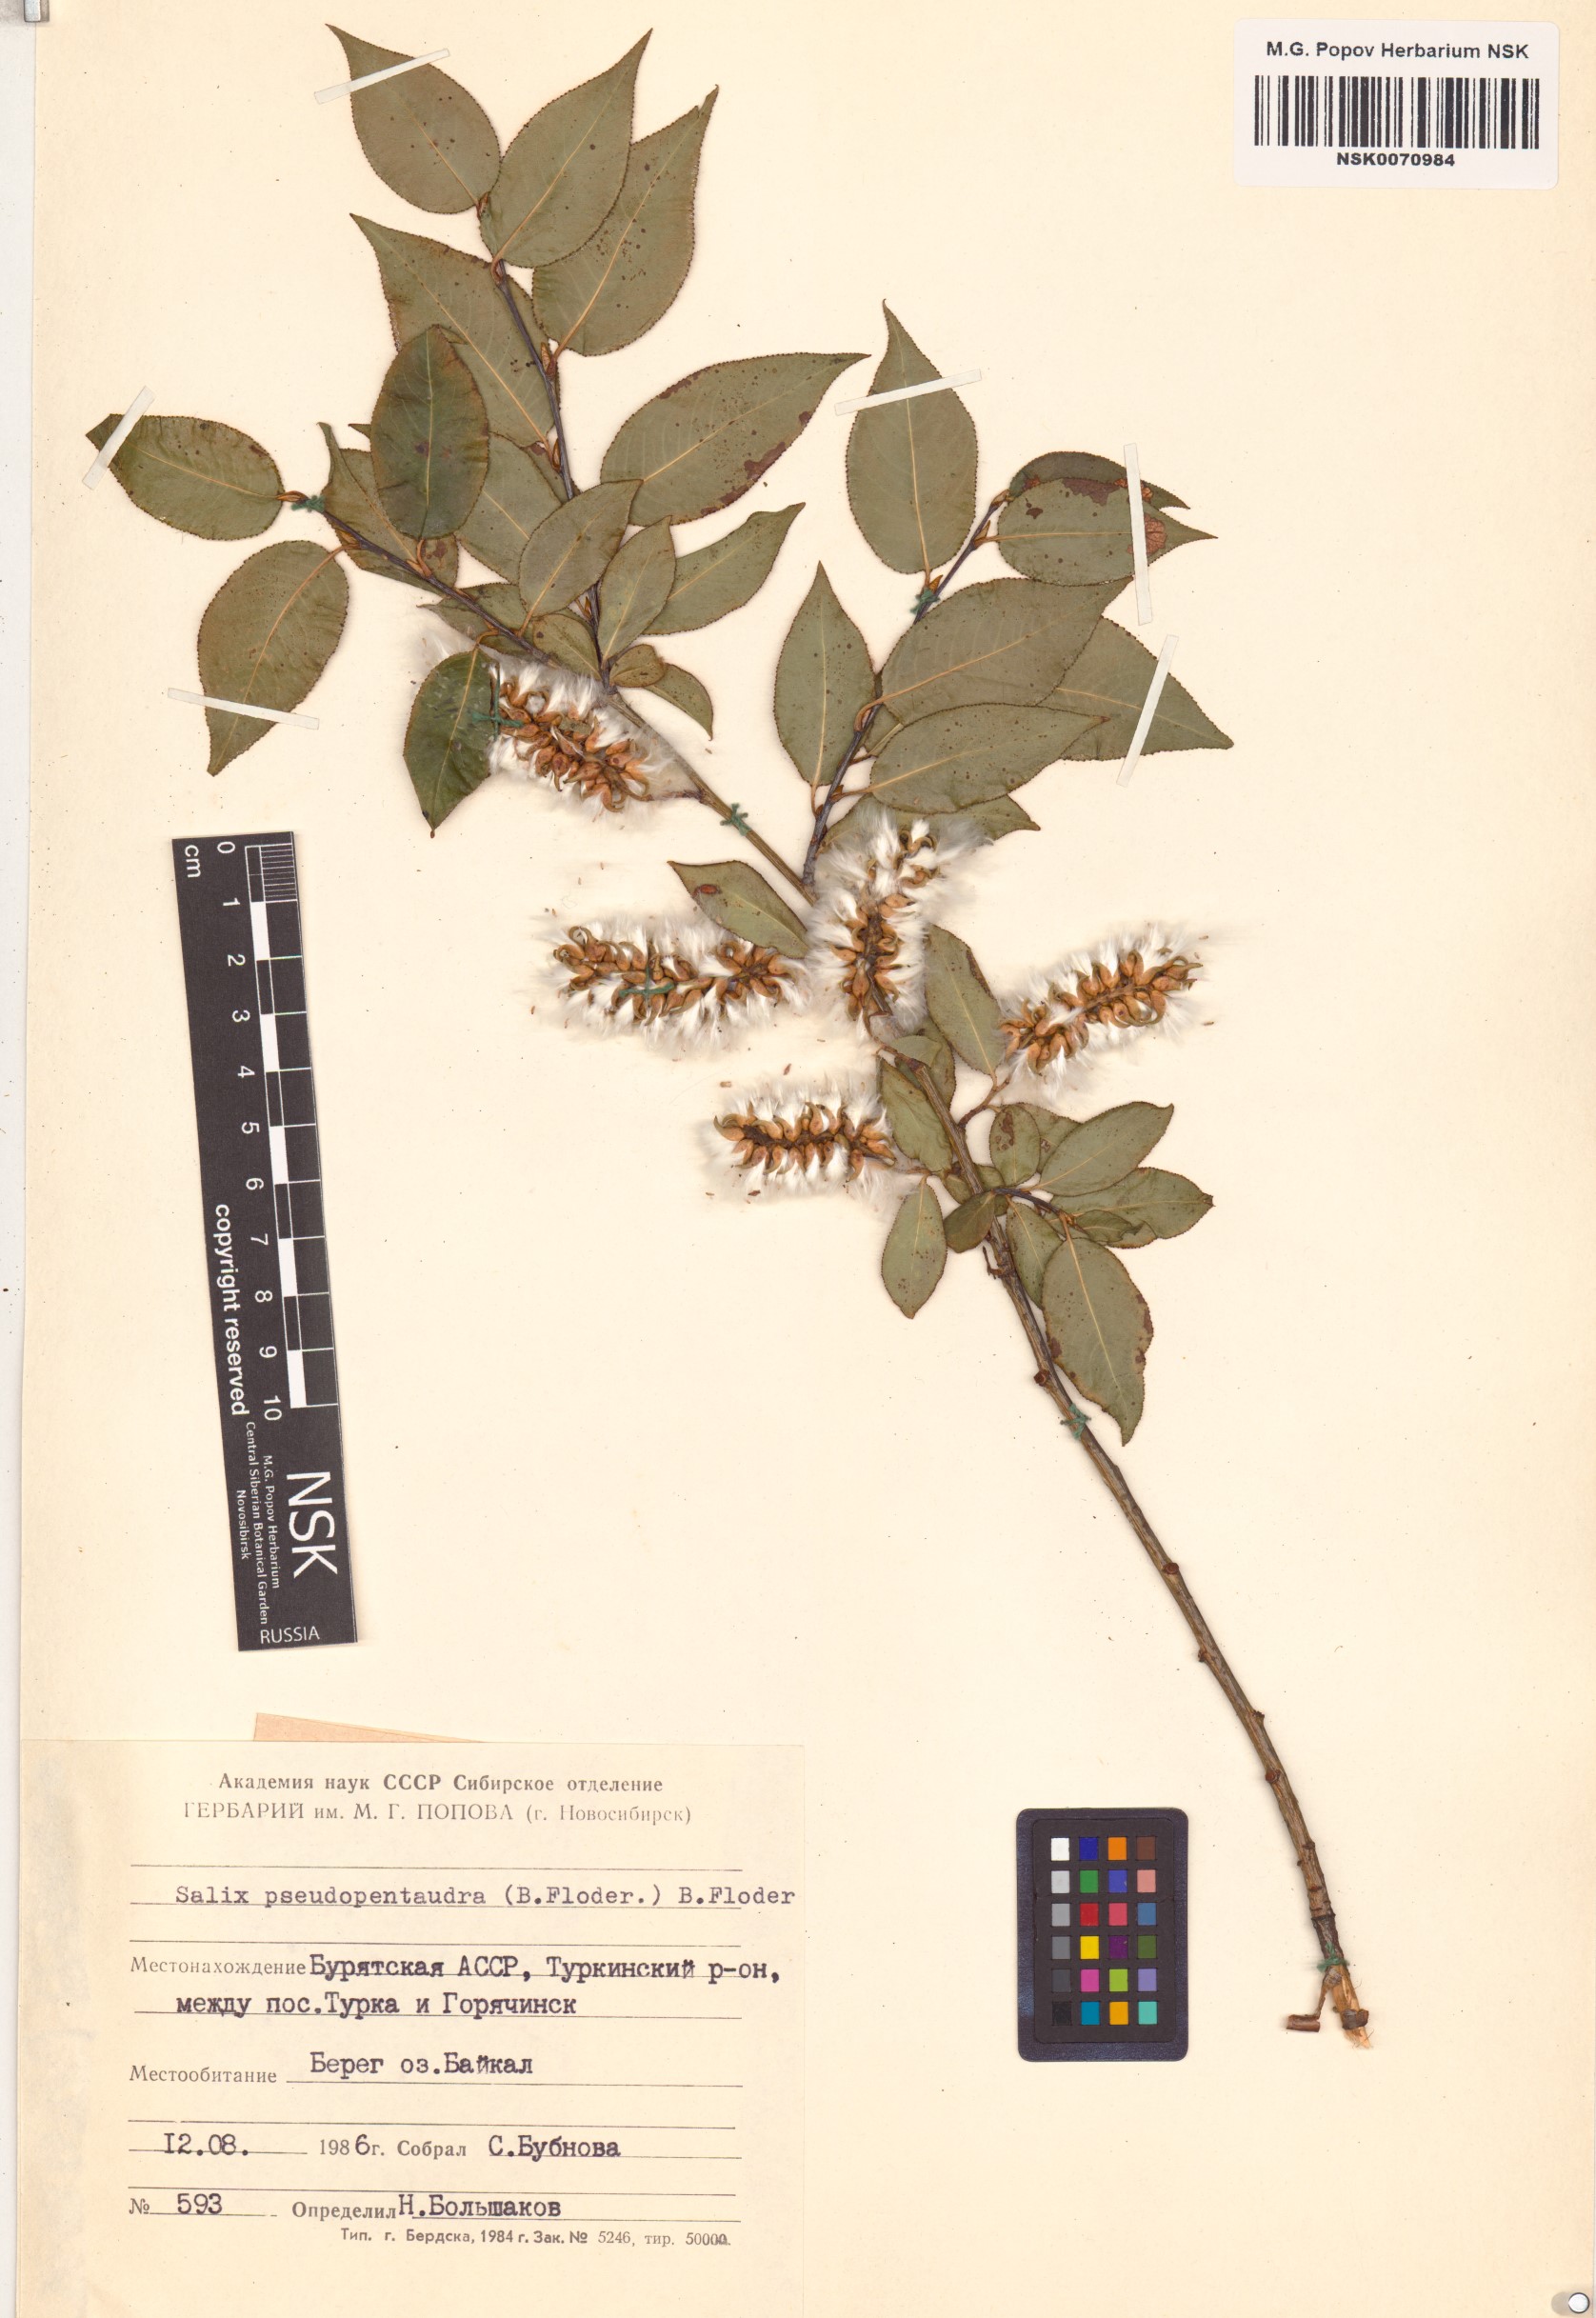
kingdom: Plantae
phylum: Tracheophyta
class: Magnoliopsida
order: Malpighiales
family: Salicaceae
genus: Salix
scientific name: Salix pseudopentandra
